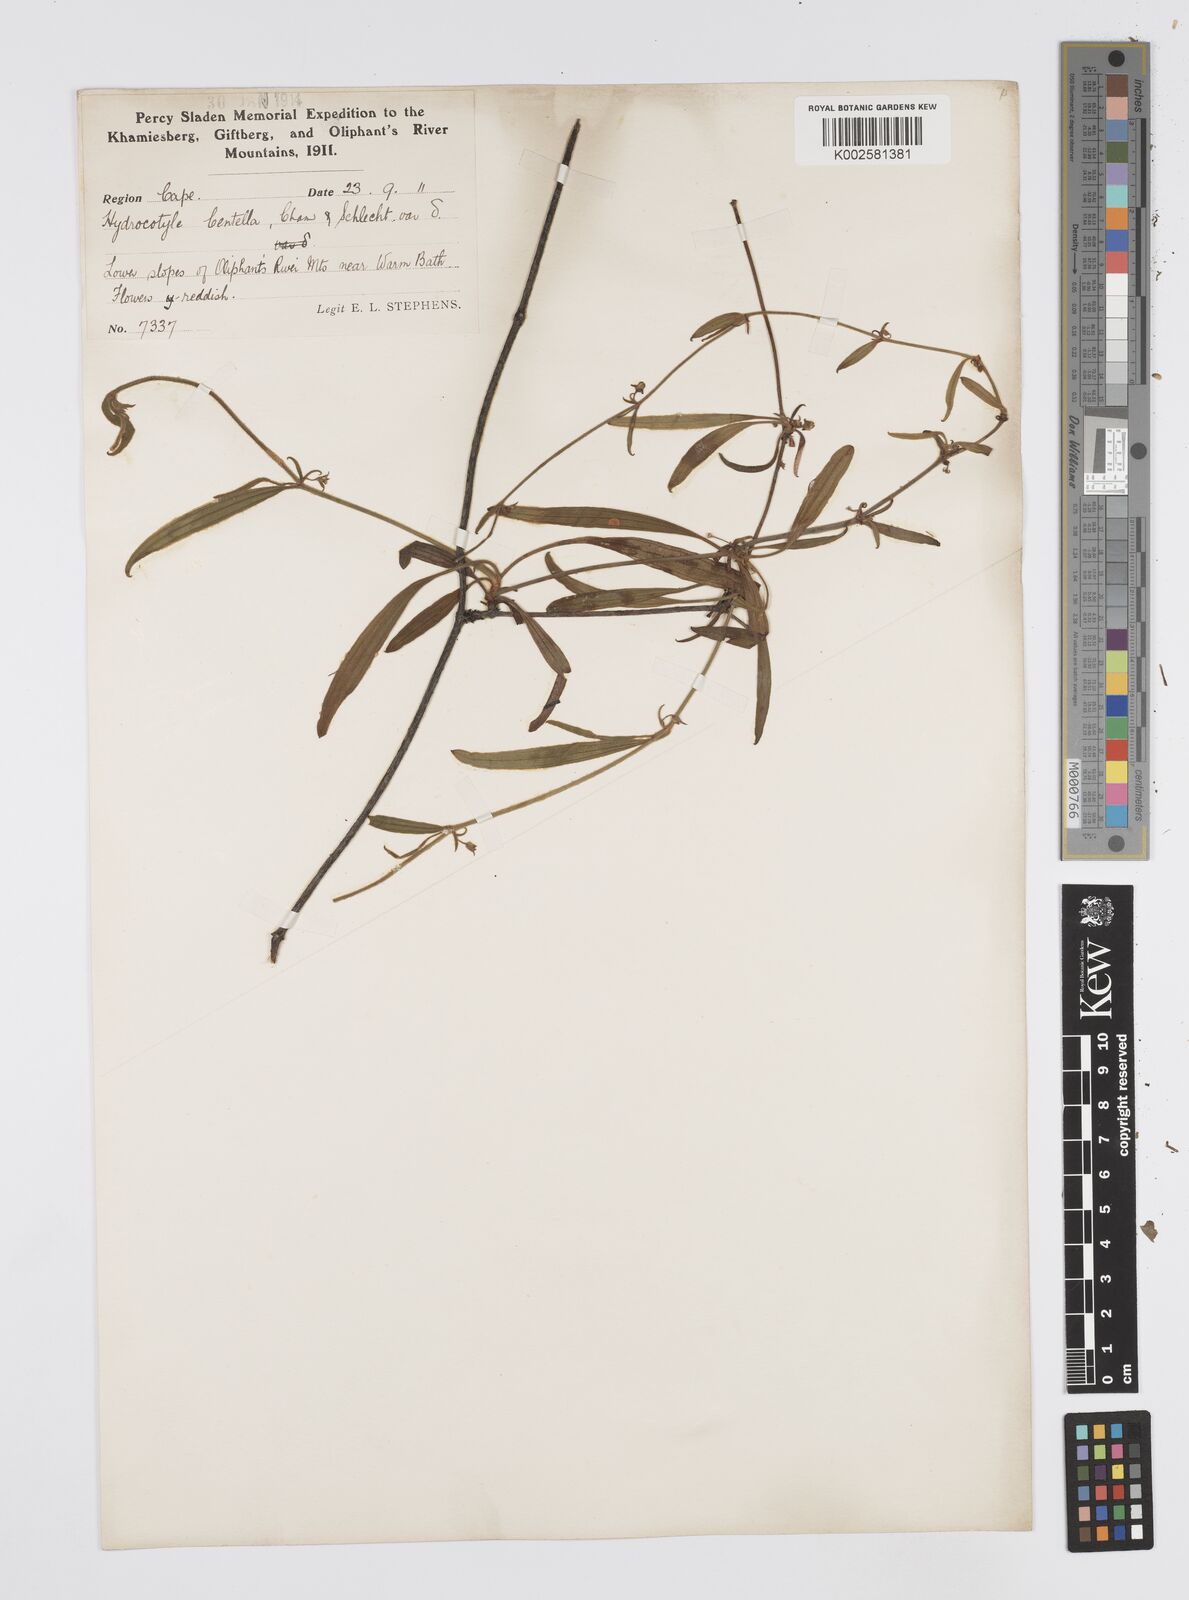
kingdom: Plantae
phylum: Tracheophyta
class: Magnoliopsida
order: Apiales
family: Apiaceae
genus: Centella
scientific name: Centella
